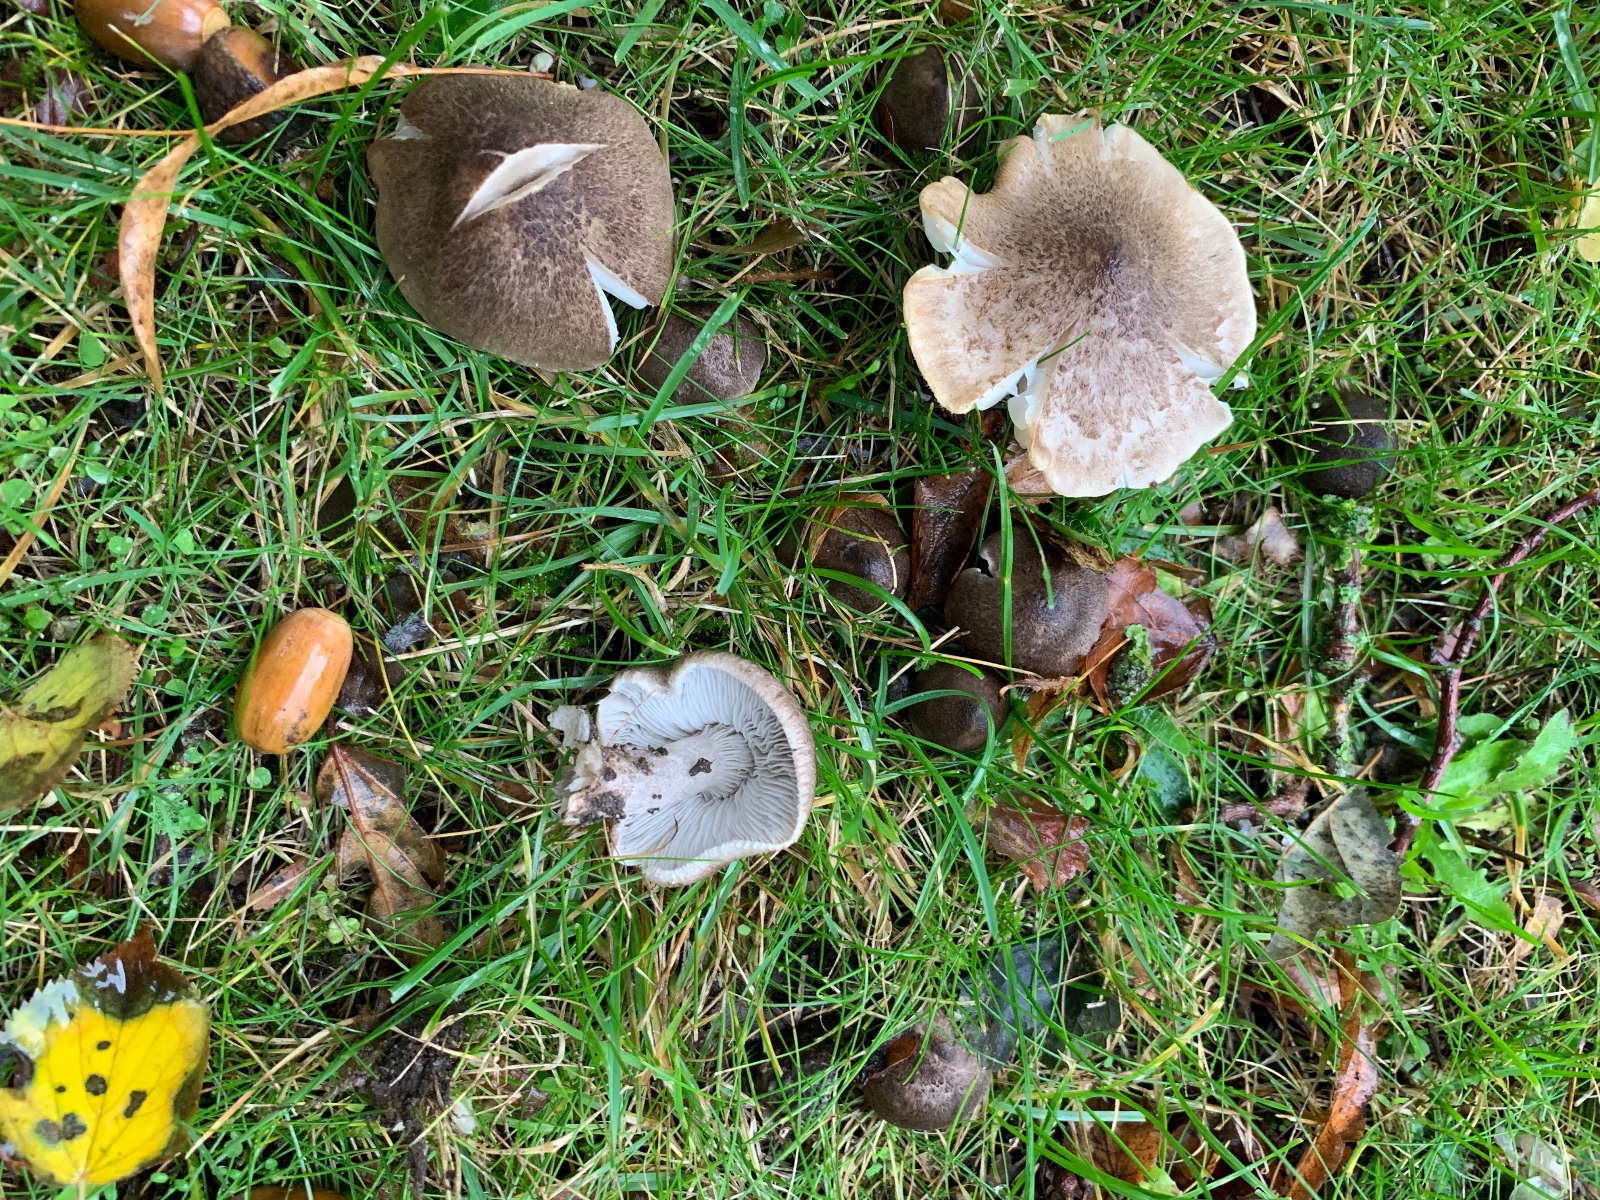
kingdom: Fungi
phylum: Basidiomycota
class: Agaricomycetes
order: Agaricales
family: Tricholomataceae
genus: Tricholoma
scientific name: Tricholoma terreum
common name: jordfarvet ridderhat
